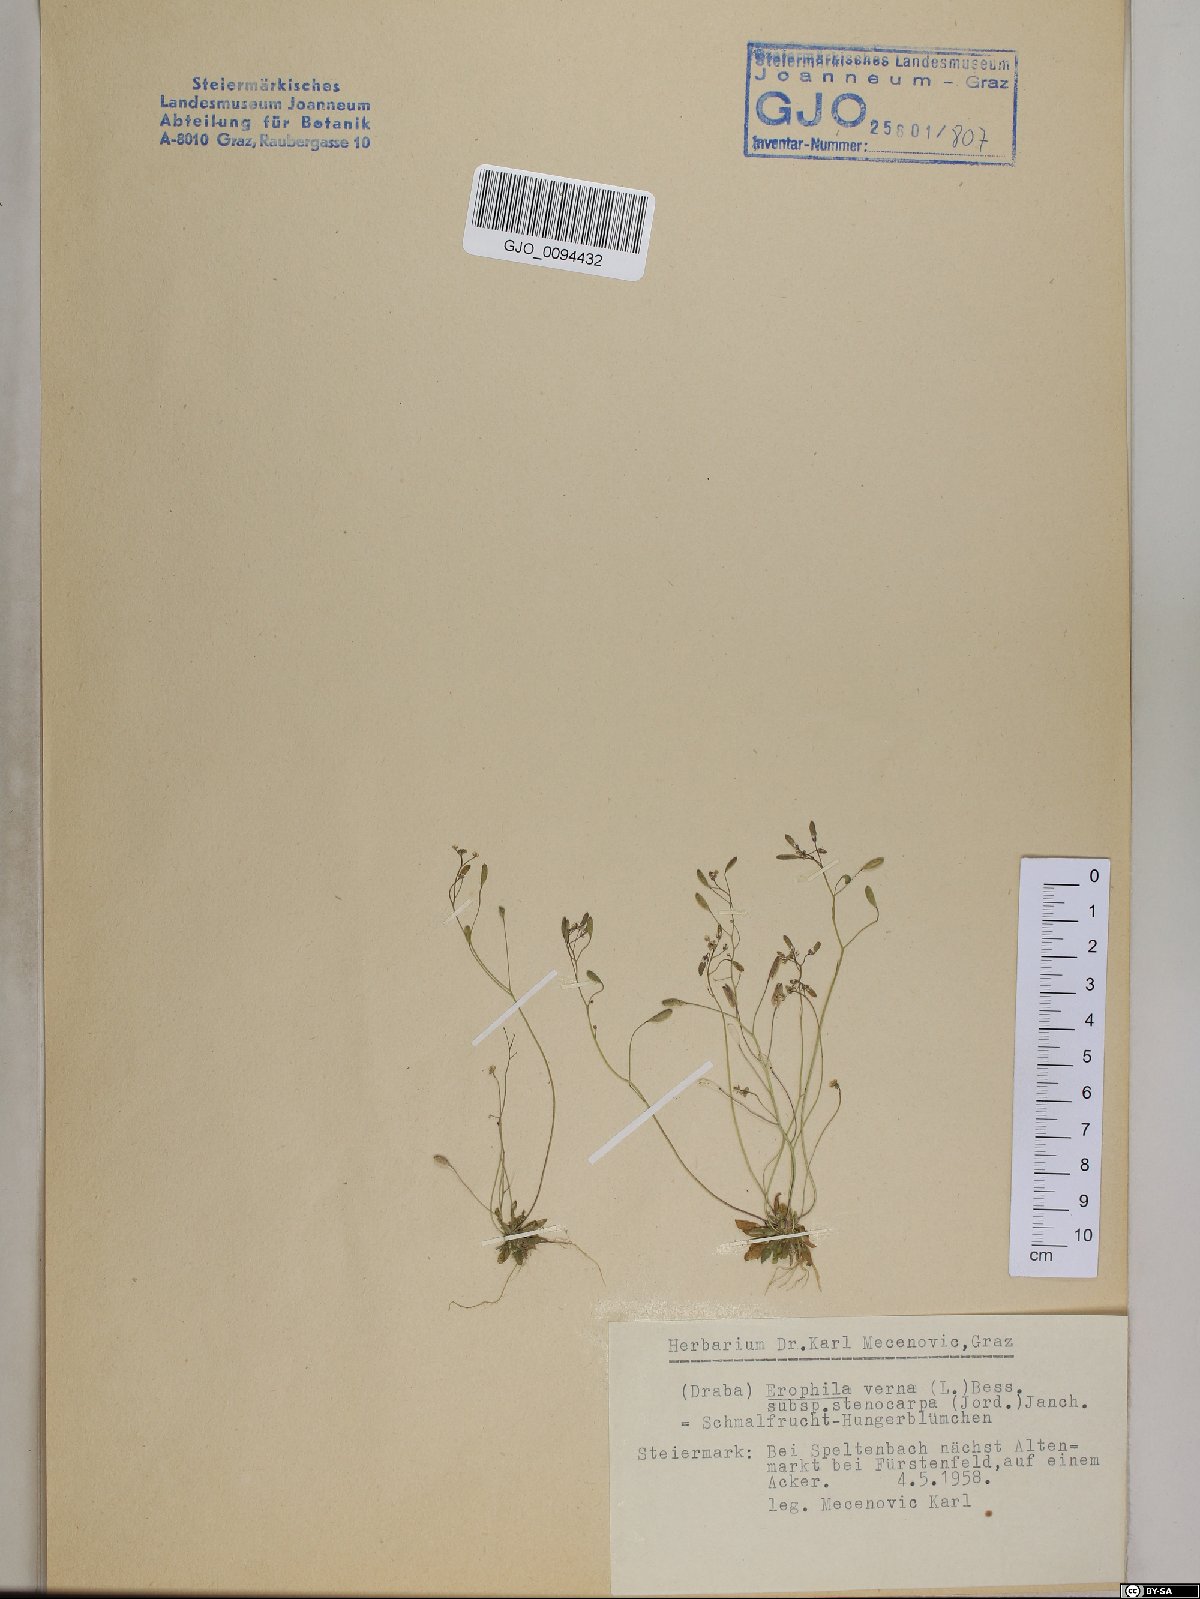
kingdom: Plantae
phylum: Tracheophyta
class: Magnoliopsida
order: Brassicales
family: Brassicaceae
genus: Draba
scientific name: Draba verna
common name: Spring draba
